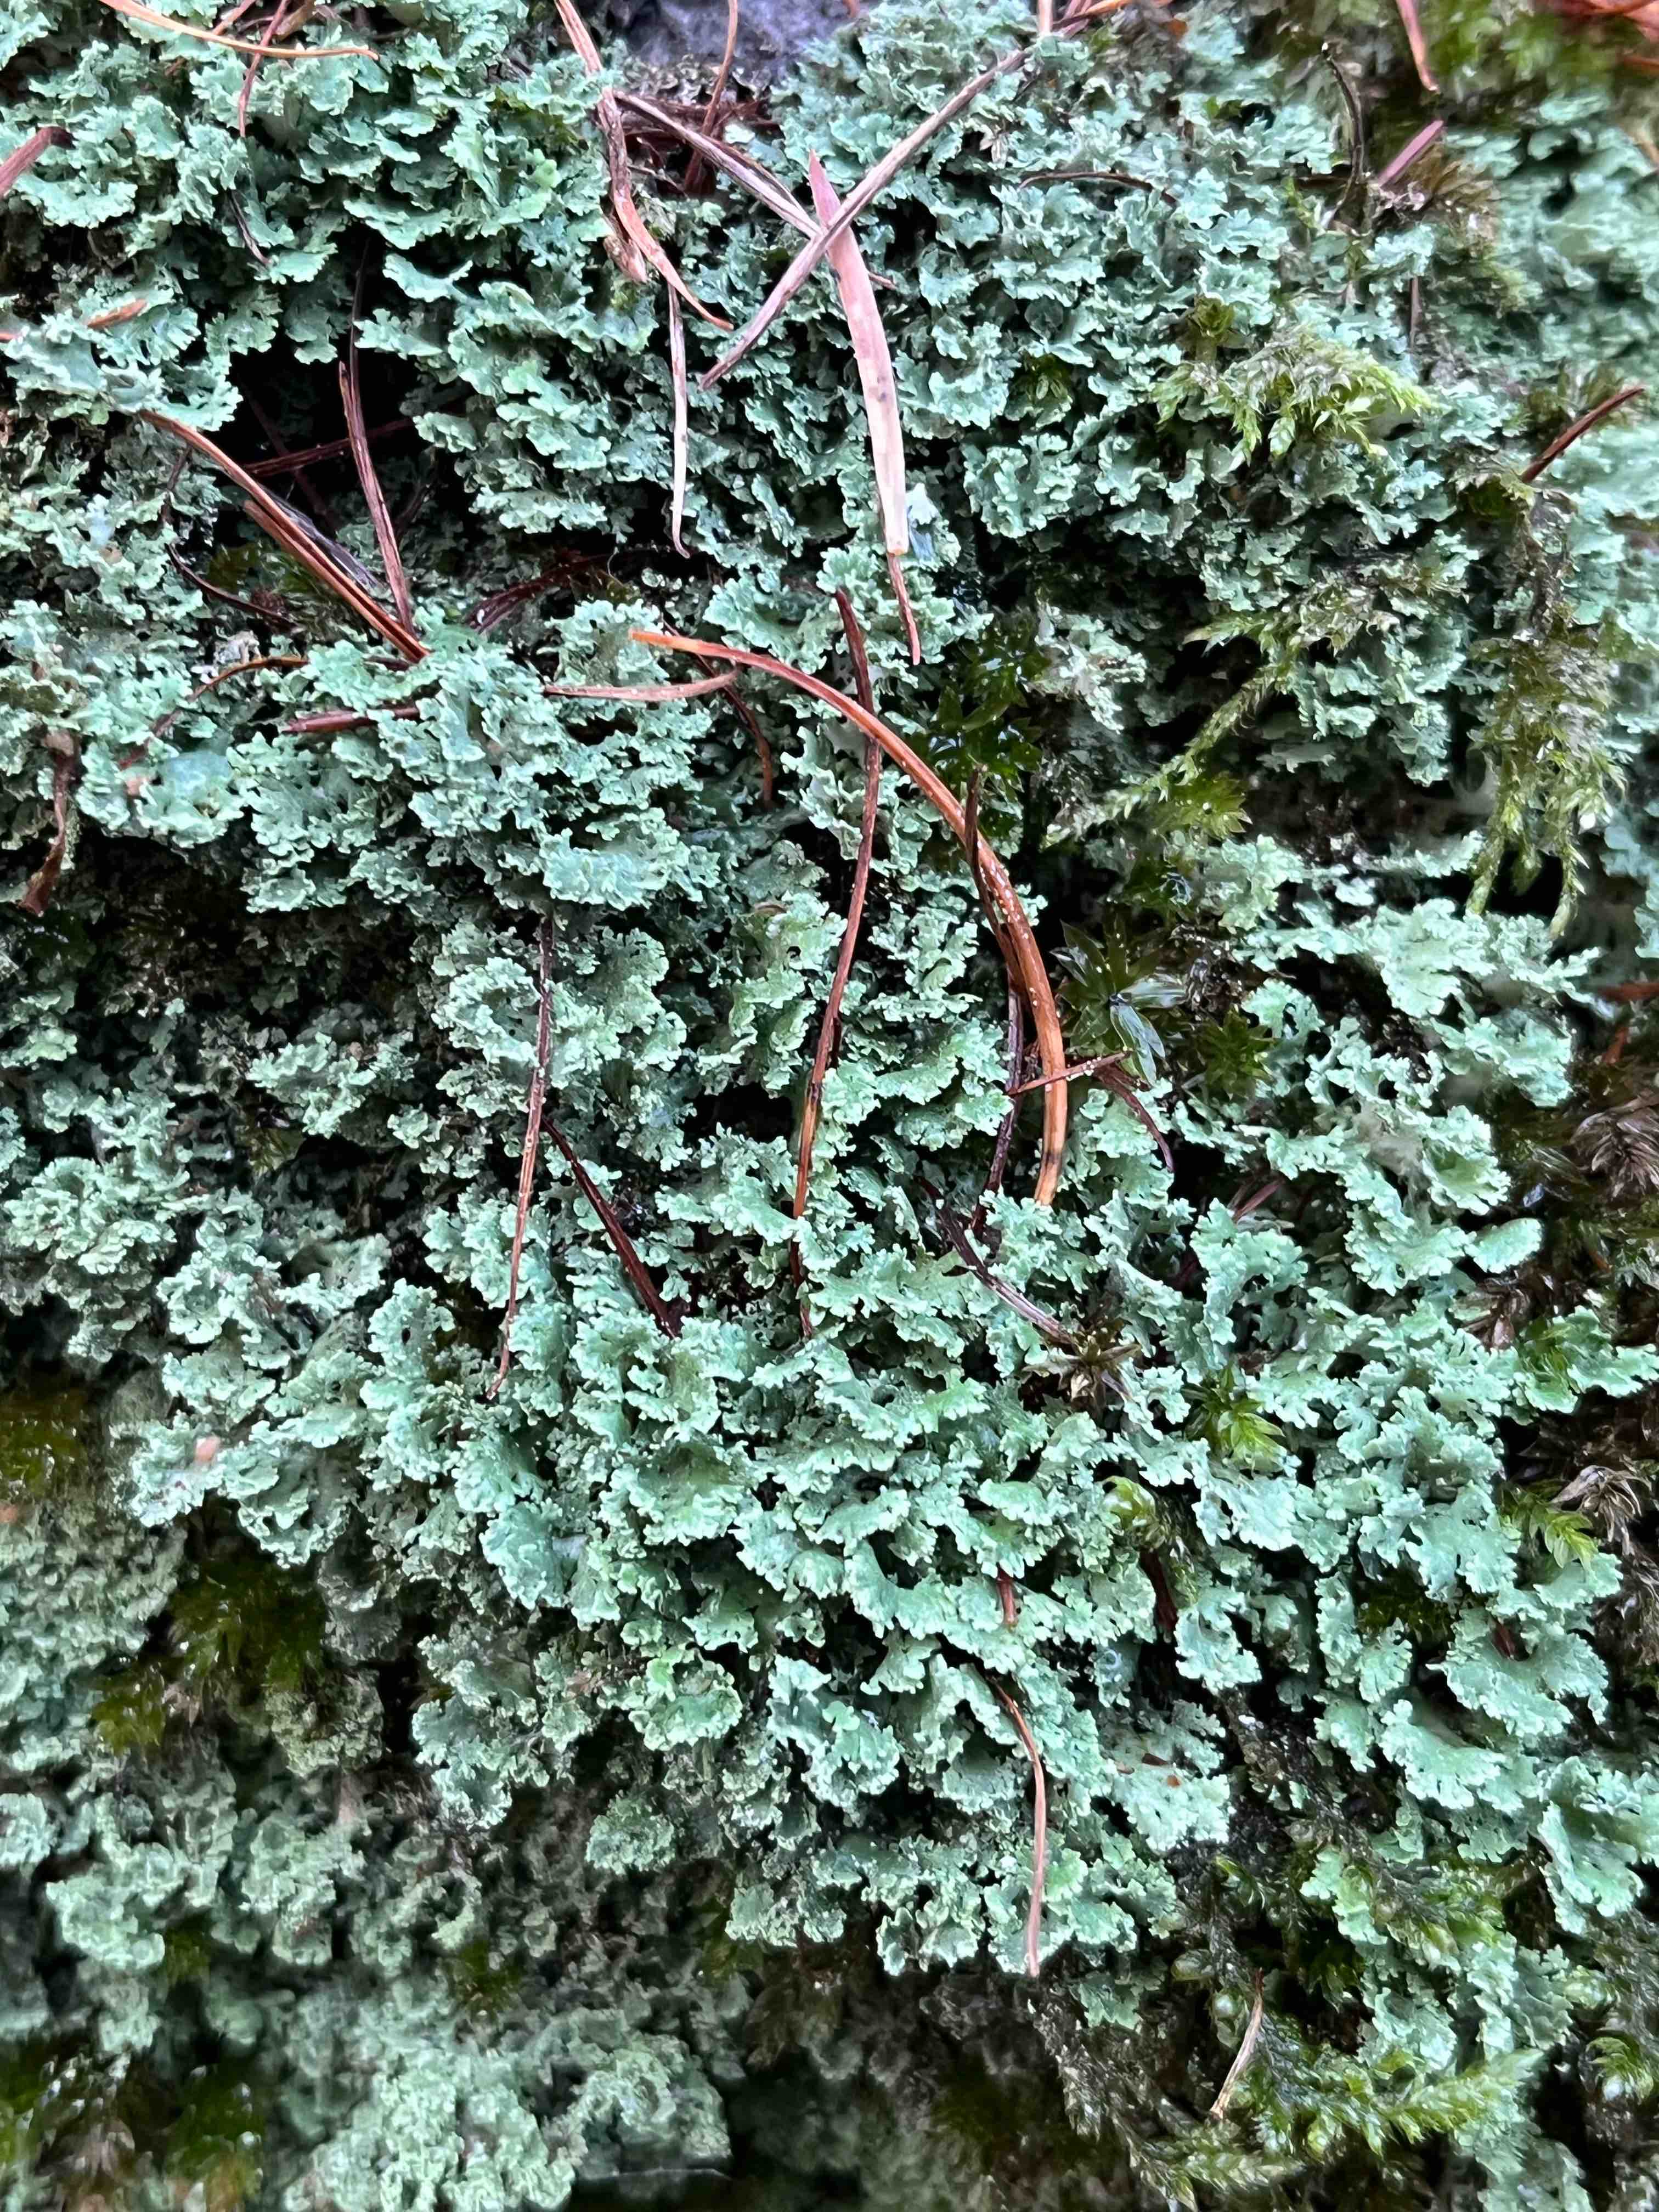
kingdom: Fungi
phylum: Ascomycota
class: Lecanoromycetes
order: Lecanorales
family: Cladoniaceae
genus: Cladonia
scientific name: Cladonia
